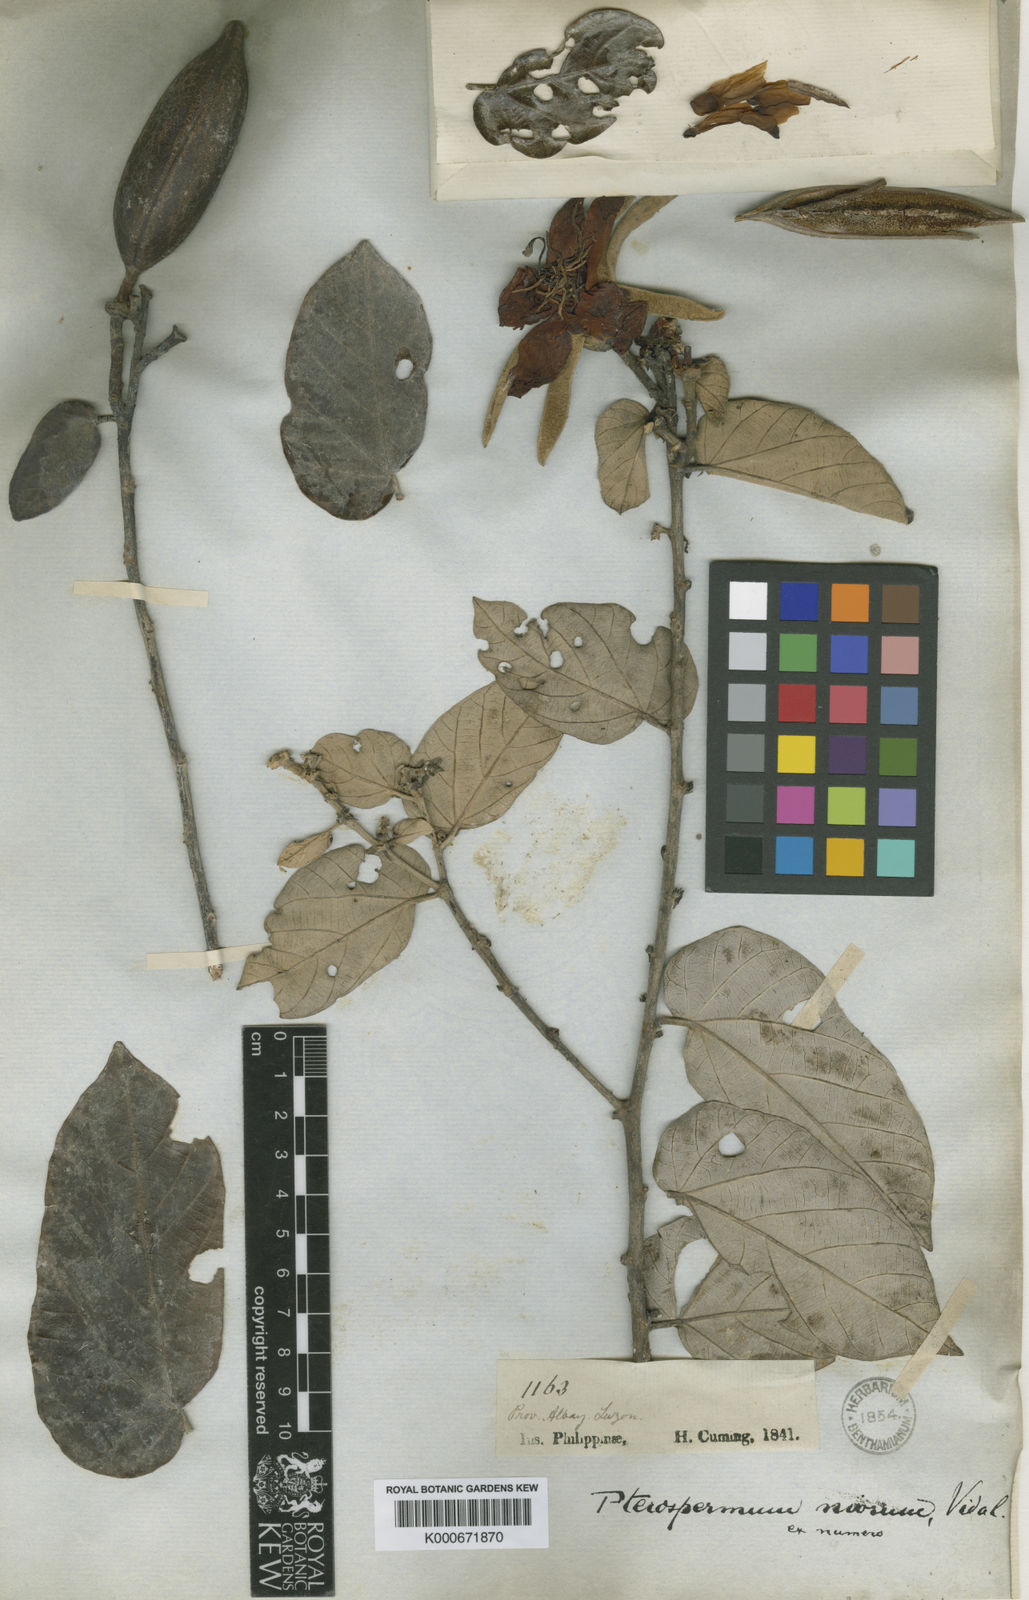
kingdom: Plantae
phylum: Tracheophyta
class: Magnoliopsida
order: Malvales
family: Malvaceae
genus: Pterospermum
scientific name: Pterospermum niveum
